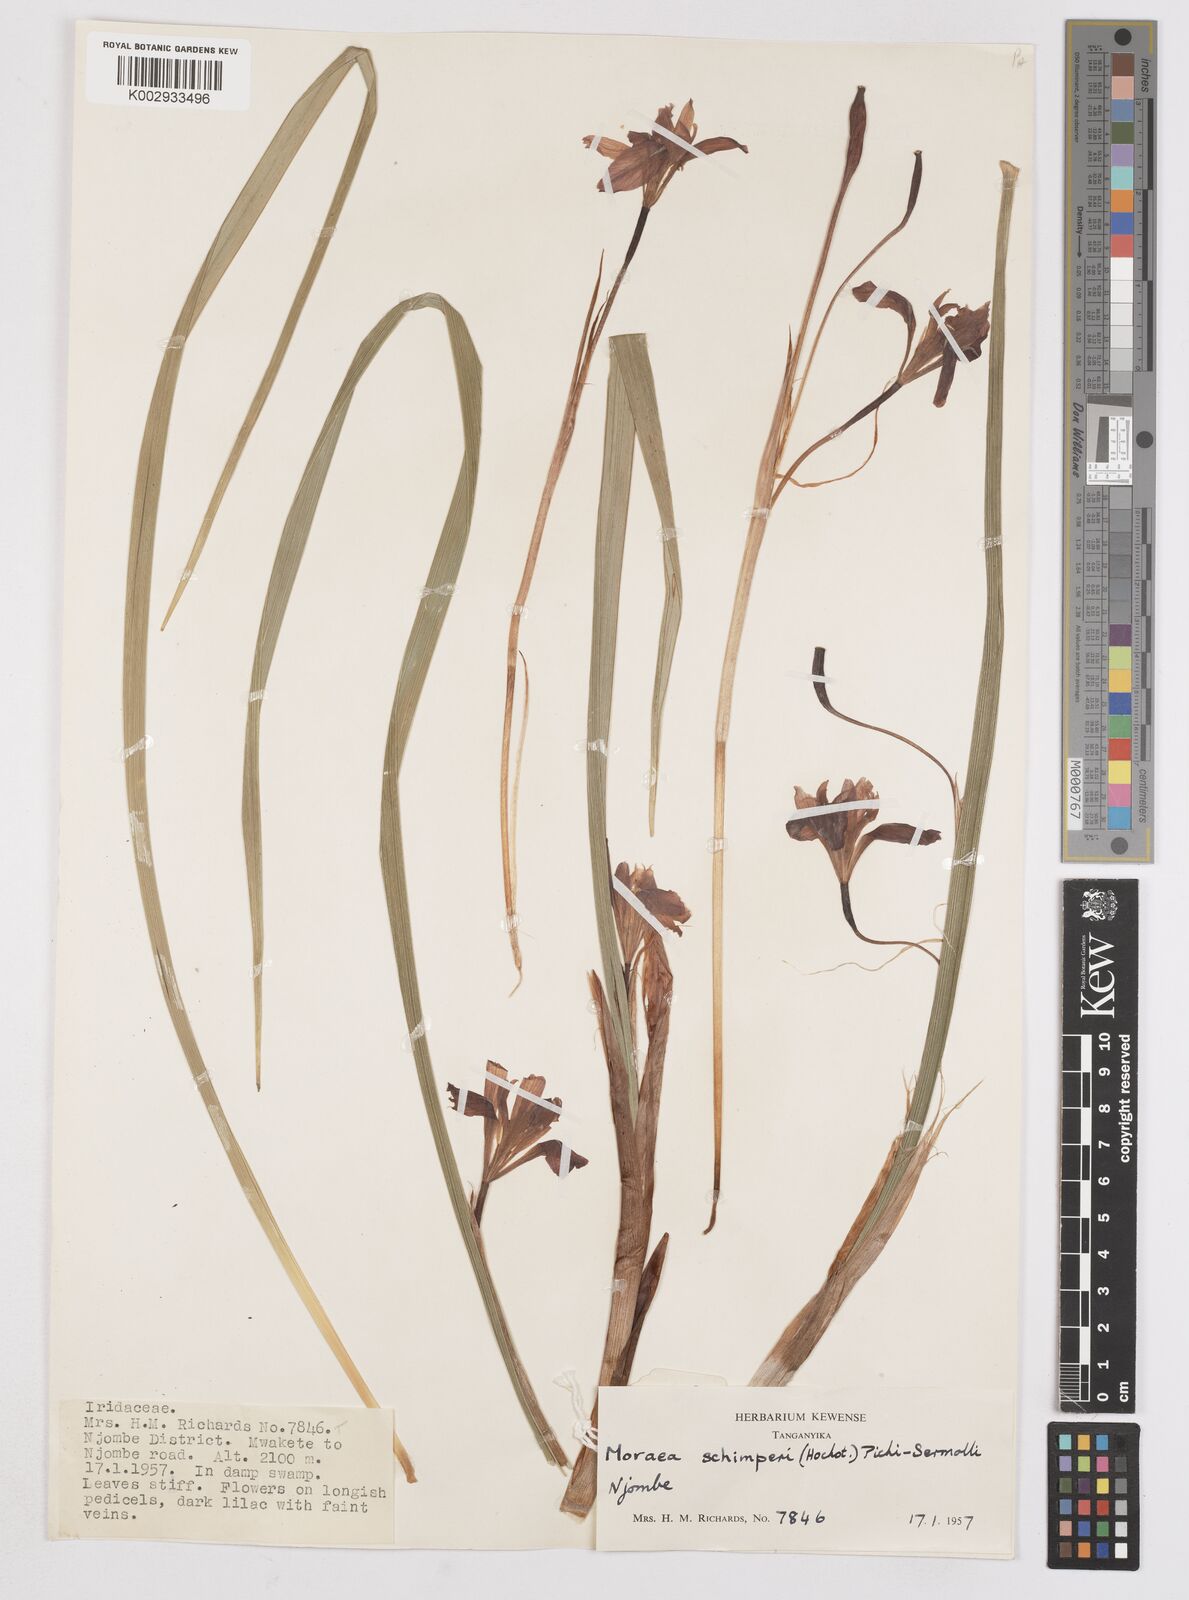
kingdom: Plantae
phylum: Tracheophyta
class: Liliopsida
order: Asparagales
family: Iridaceae
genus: Moraea
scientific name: Moraea schimperi
